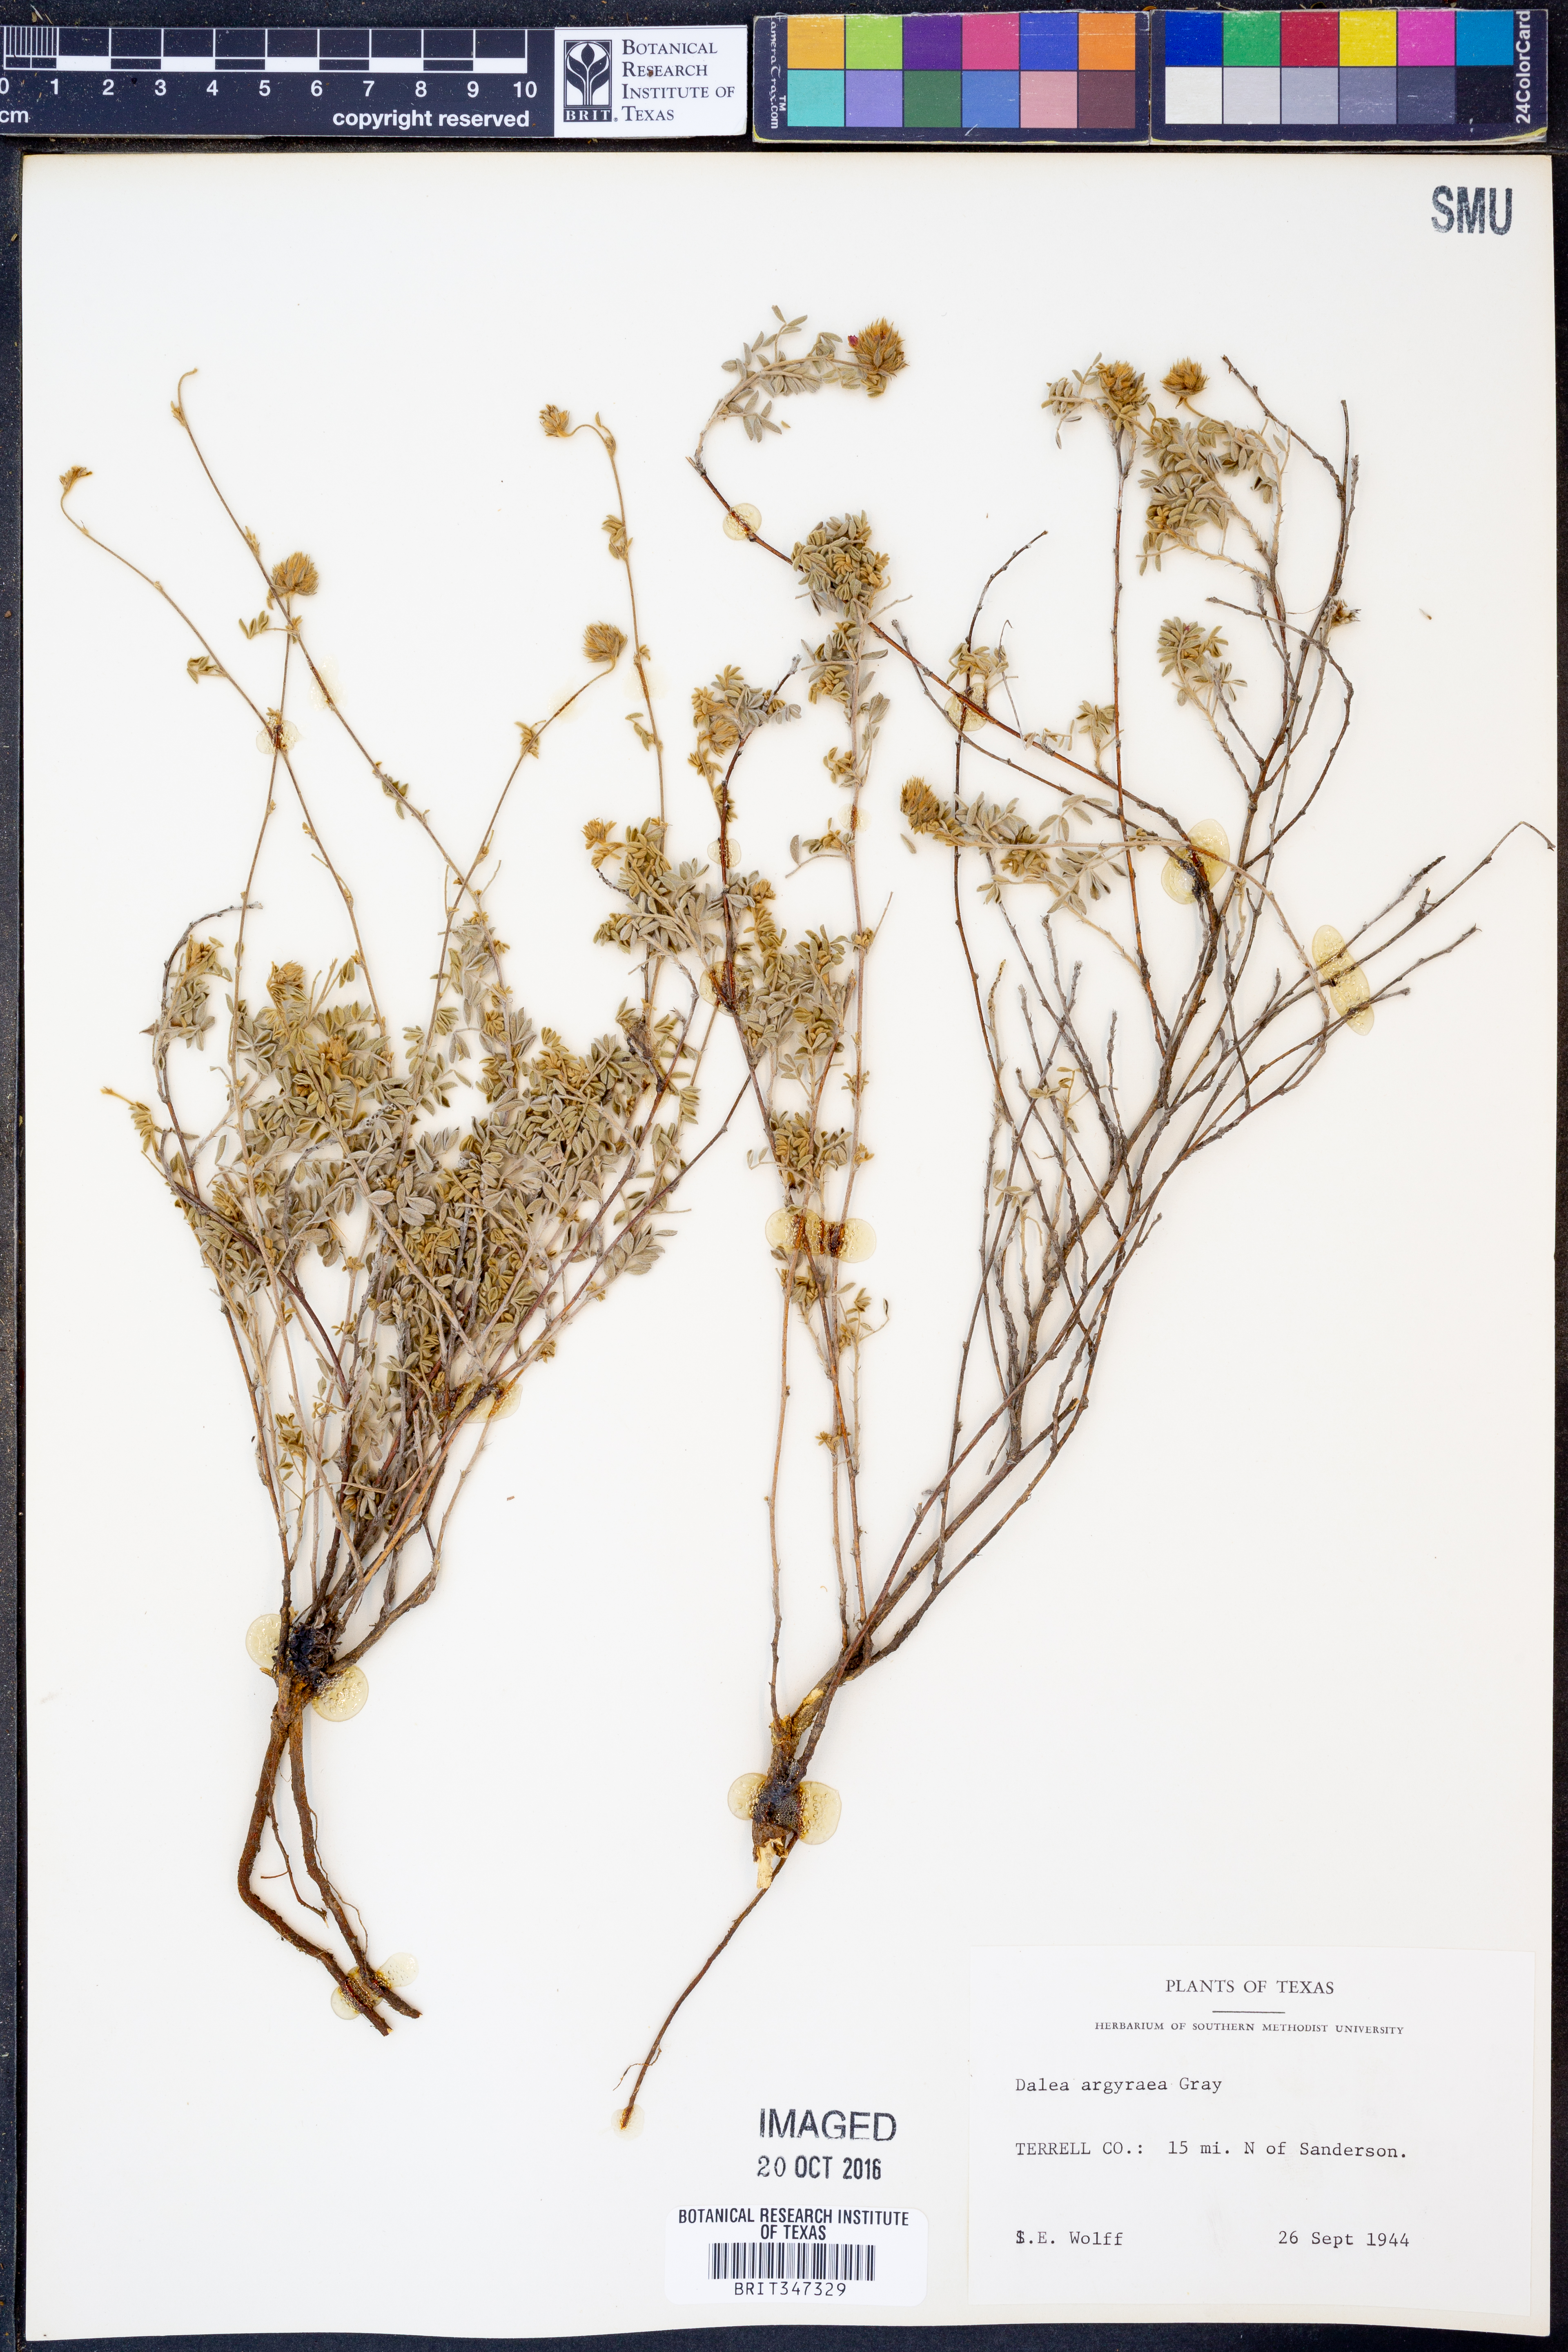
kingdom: Plantae
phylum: Tracheophyta
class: Magnoliopsida
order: Fabales
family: Fabaceae
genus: Dalea
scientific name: Dalea bicolor
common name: Silver prairie-clover
